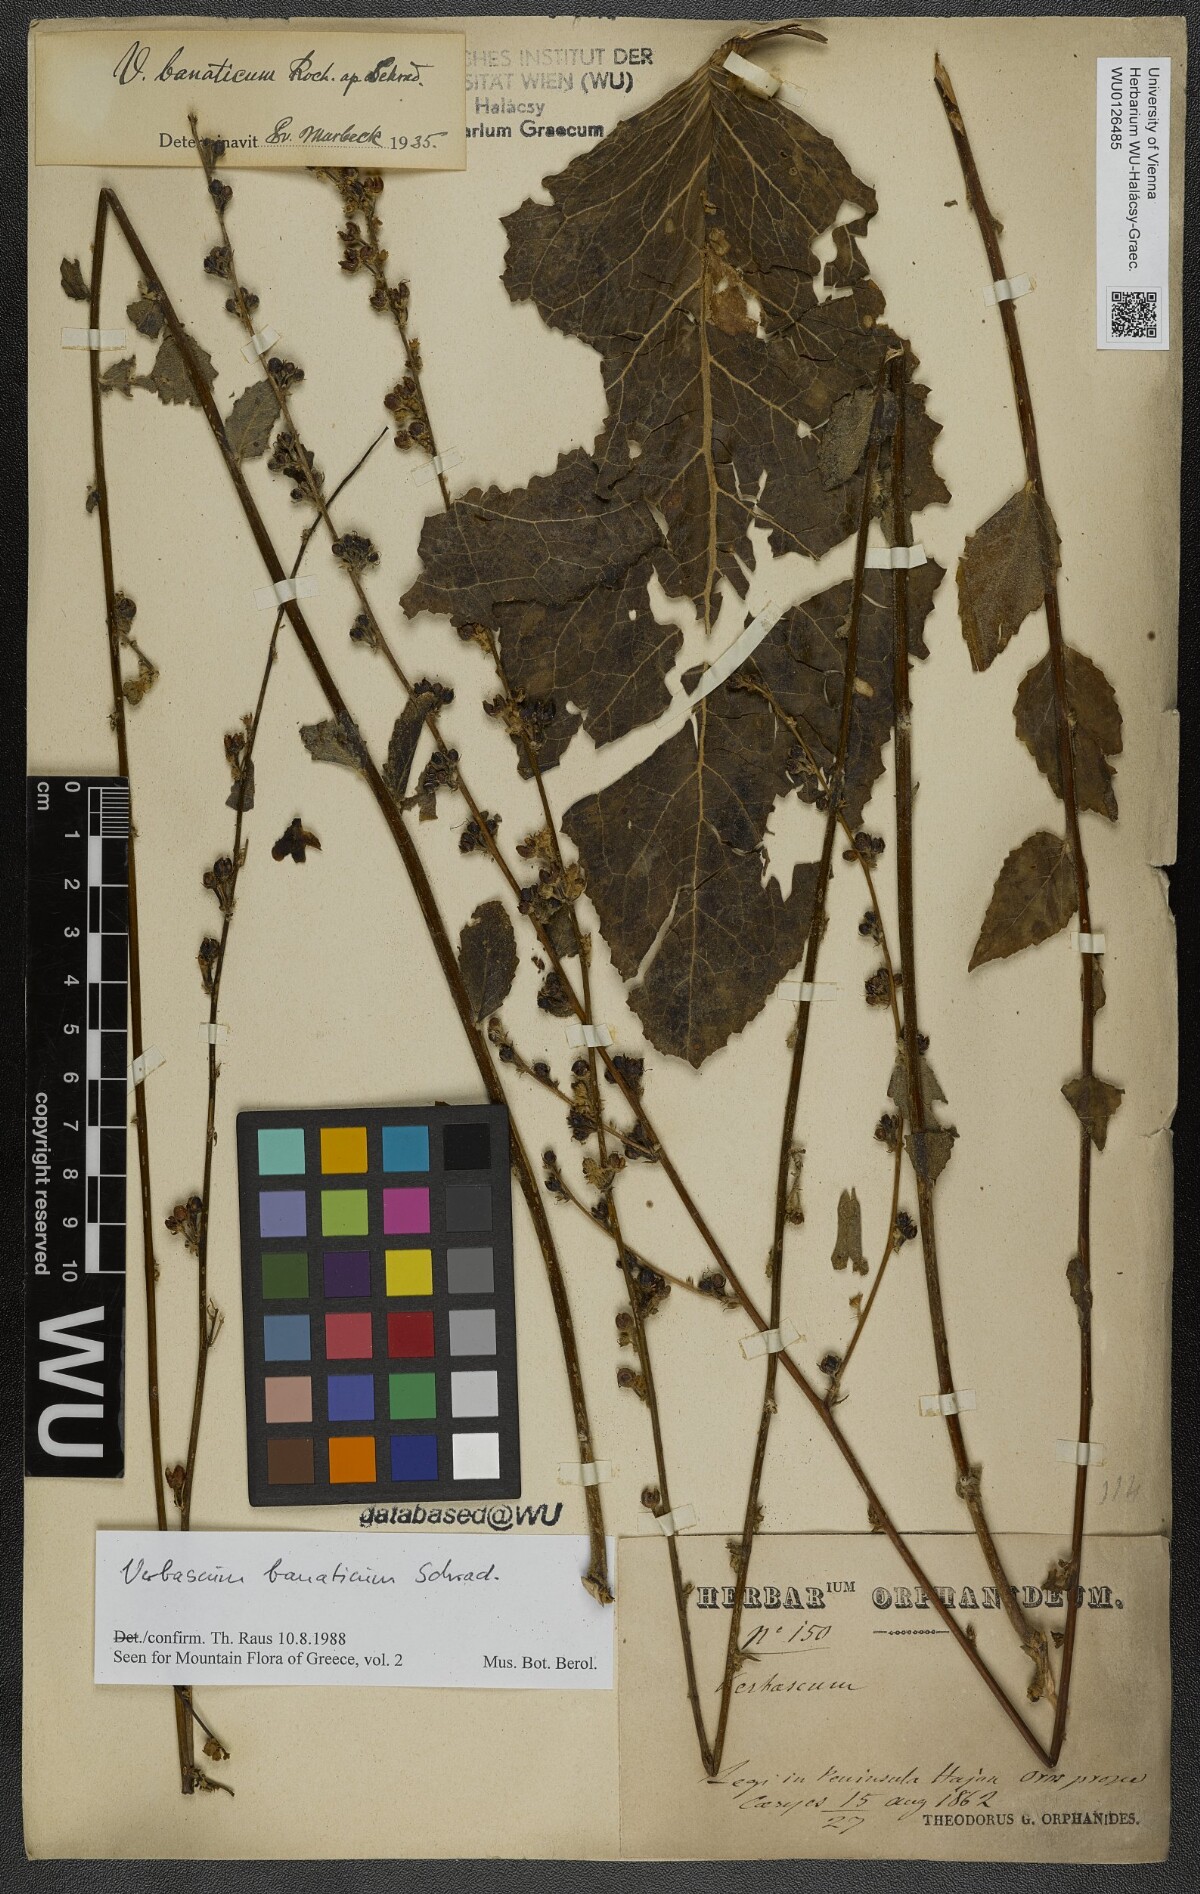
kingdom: Plantae
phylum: Tracheophyta
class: Magnoliopsida
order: Lamiales
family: Scrophulariaceae
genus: Verbascum
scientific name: Verbascum banaticum
